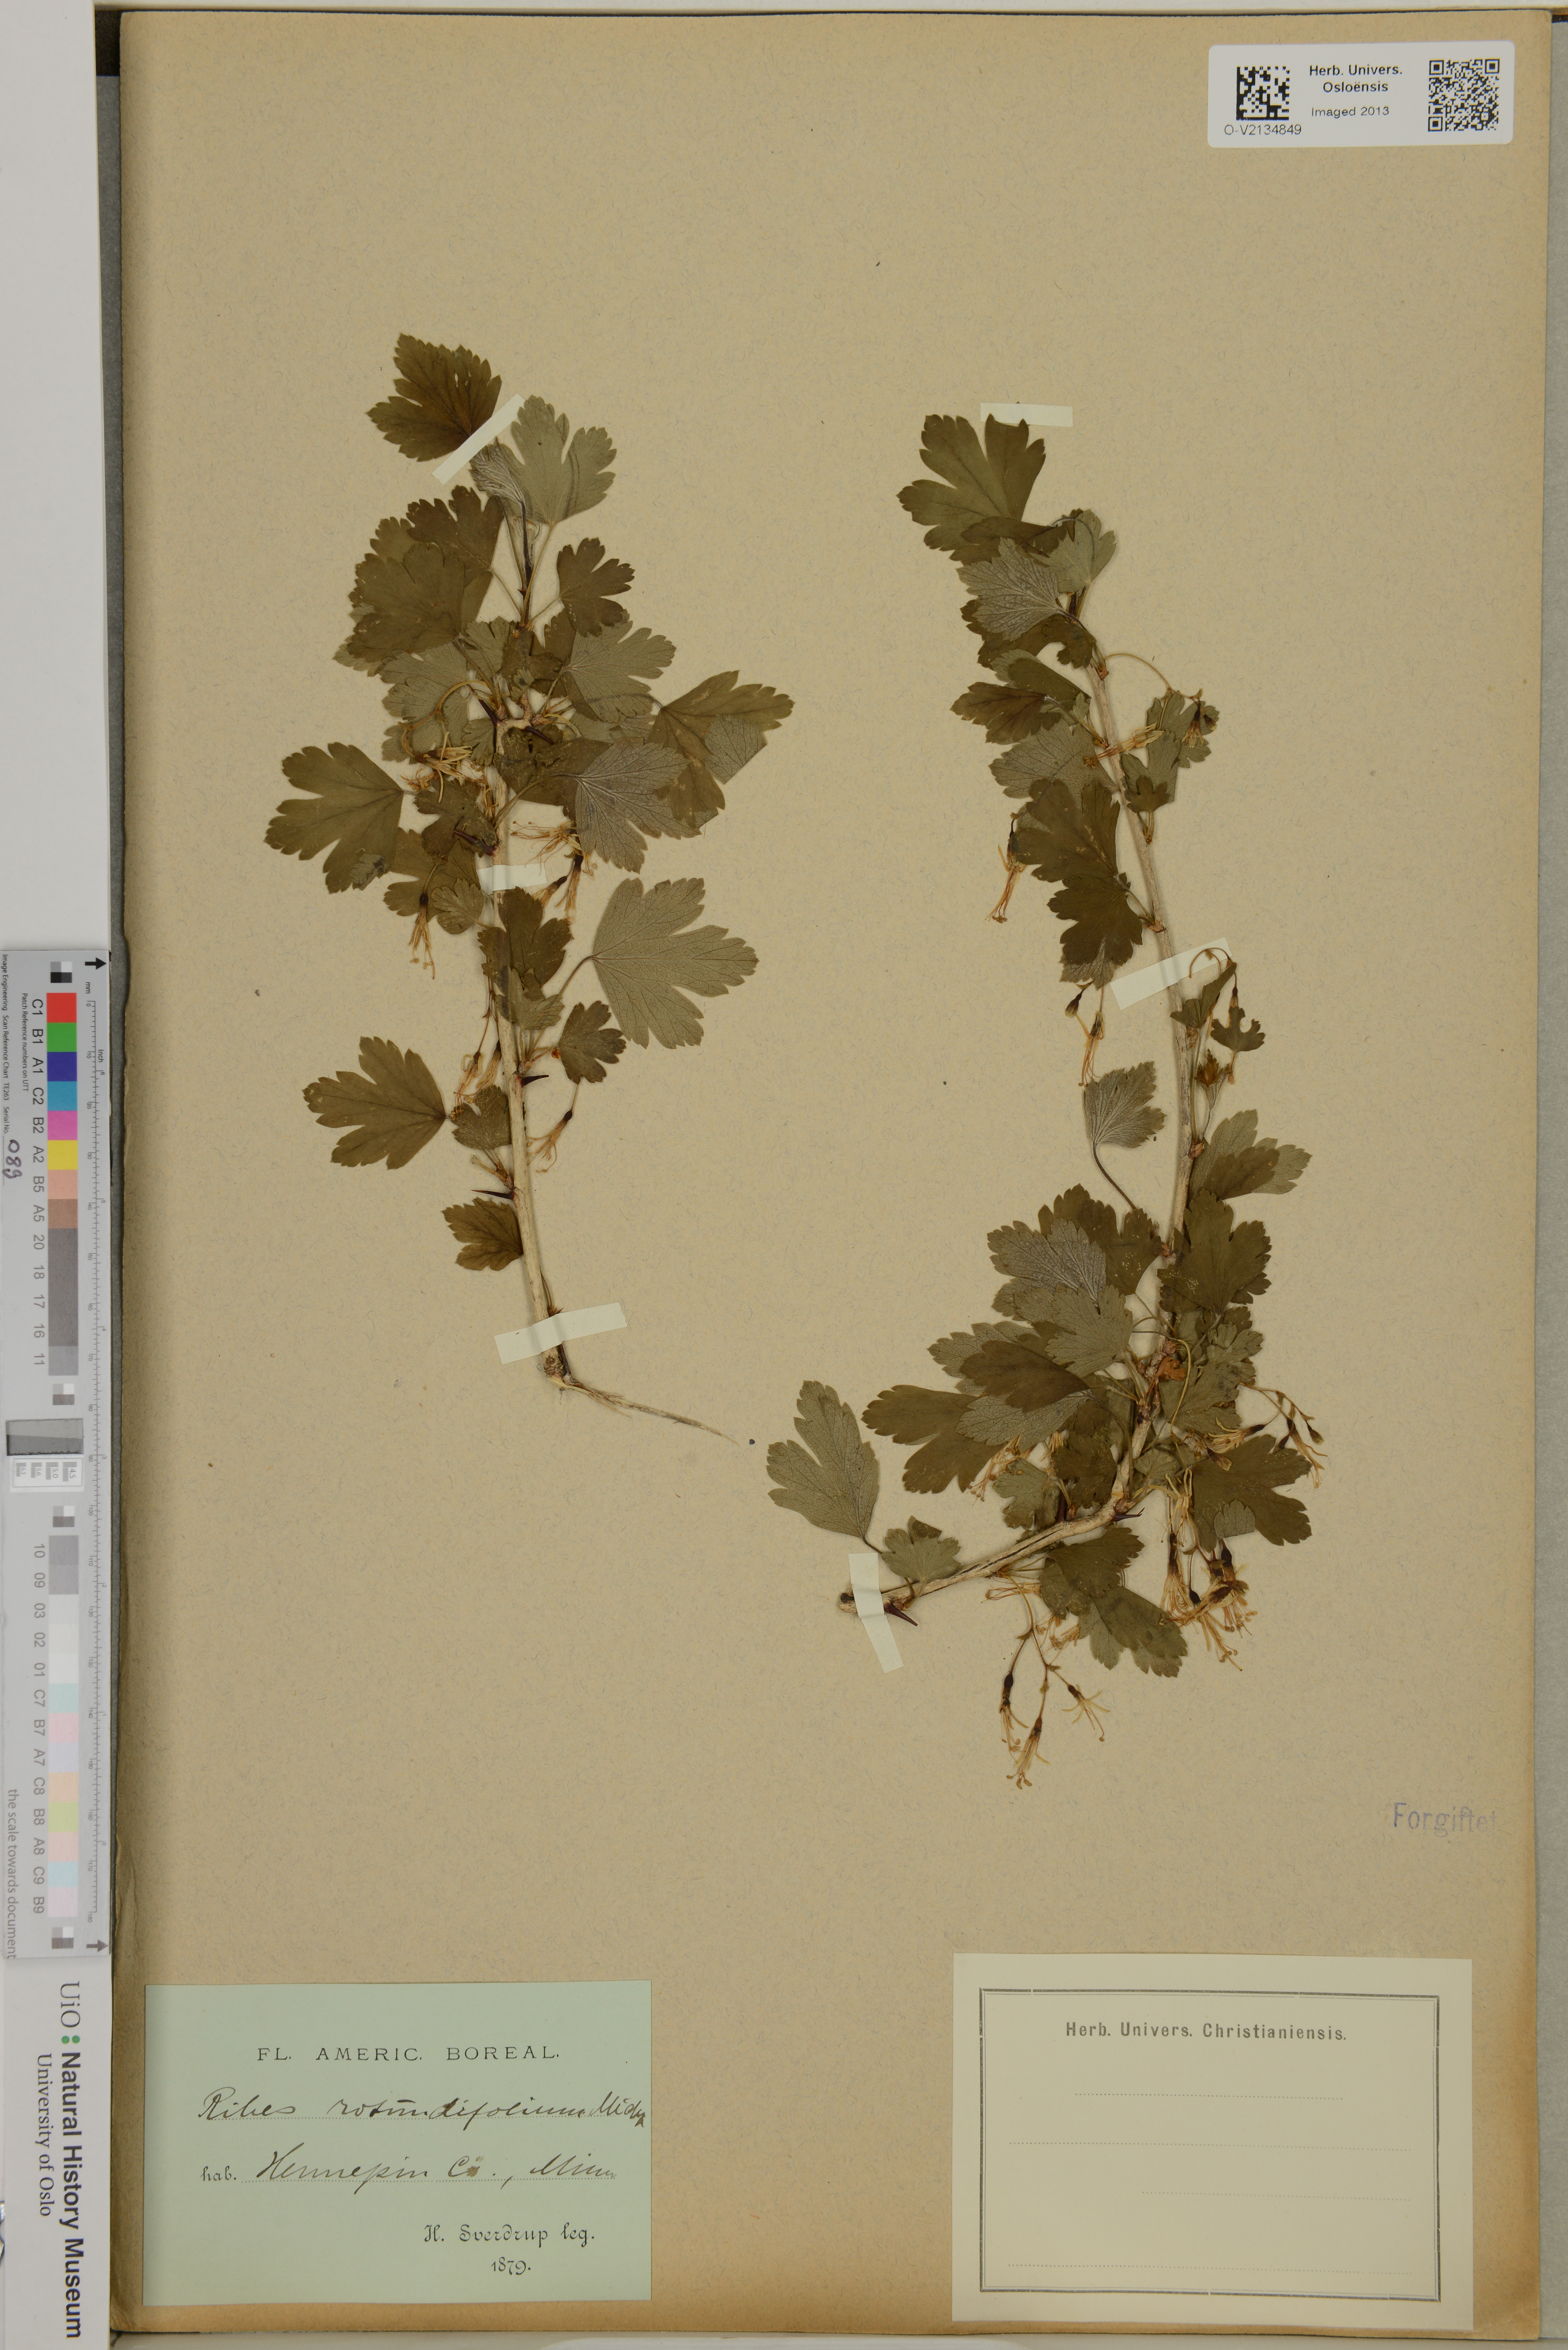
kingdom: Plantae
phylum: Tracheophyta
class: Magnoliopsida
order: Saxifragales
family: Grossulariaceae
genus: Ribes
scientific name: Ribes rotundifolium
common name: Appalachian gooseberry
